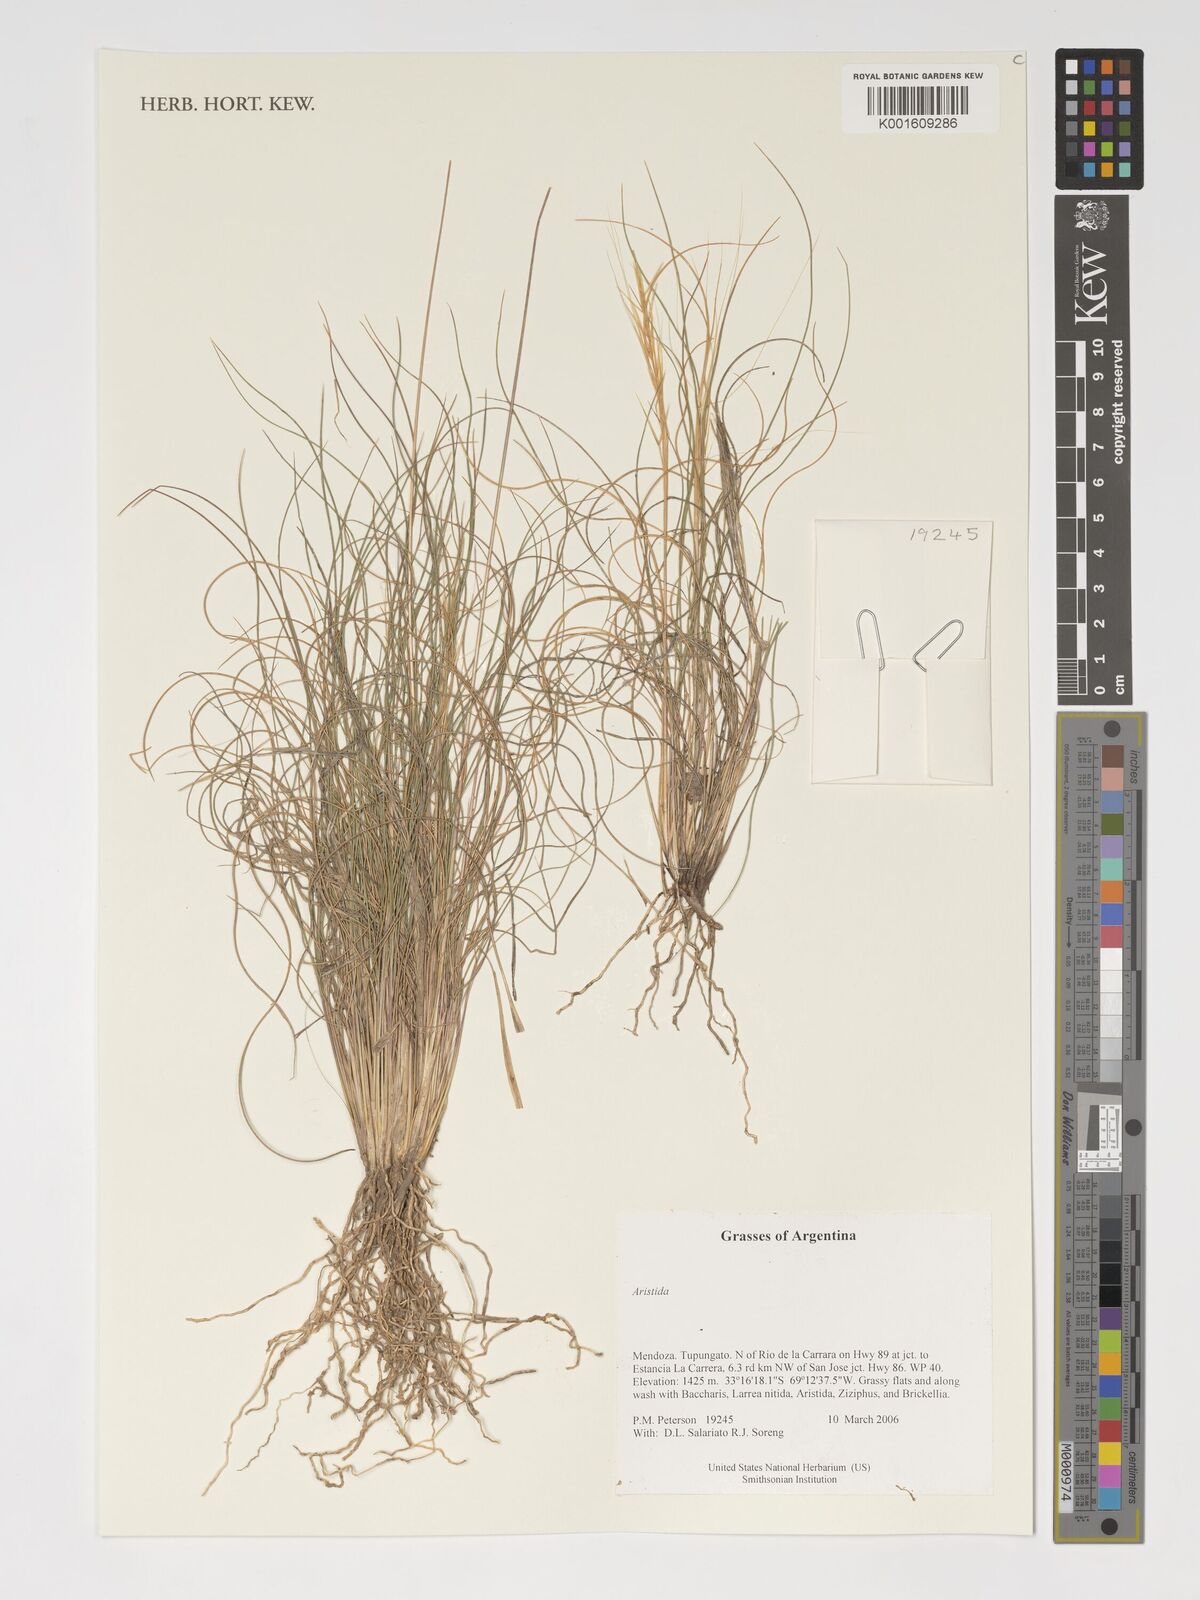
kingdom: Plantae
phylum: Tracheophyta
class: Liliopsida
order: Poales
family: Poaceae
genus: Aristida
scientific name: Aristida
